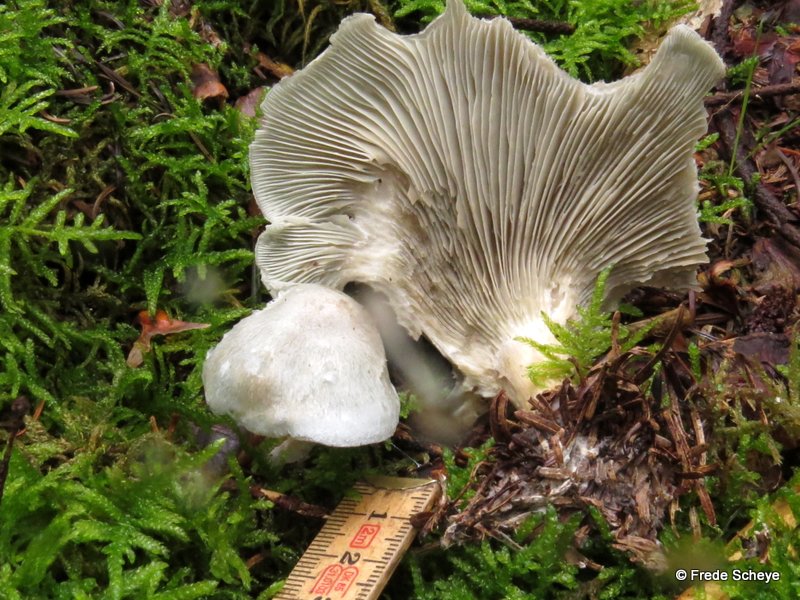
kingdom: Fungi
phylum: Basidiomycota
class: Agaricomycetes
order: Agaricales
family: Tricholomataceae
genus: Clitocybe
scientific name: Clitocybe odora
